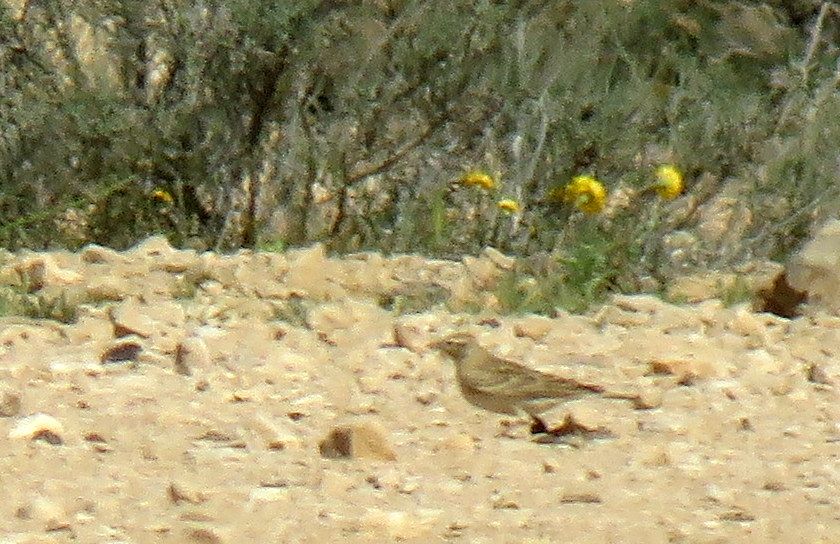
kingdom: Animalia
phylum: Chordata
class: Aves
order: Passeriformes
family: Alaudidae
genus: Calandrella
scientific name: Calandrella brachydactyla
